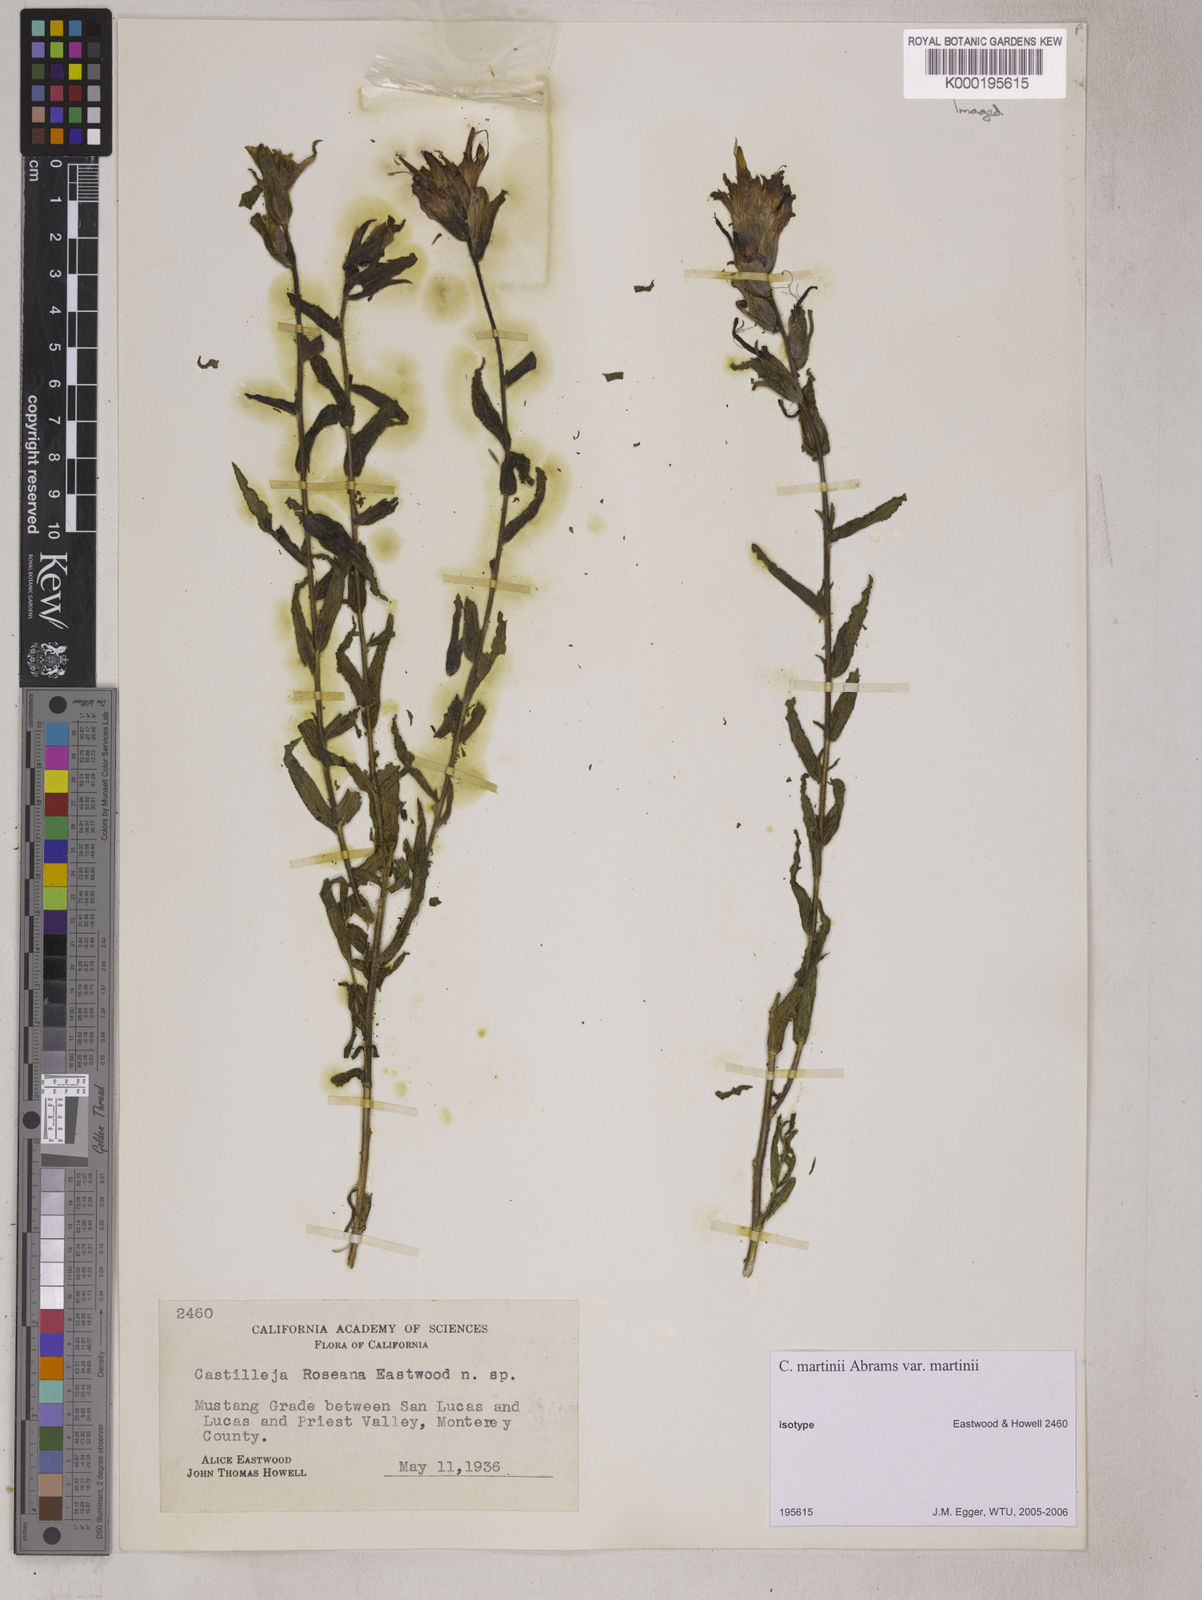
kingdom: Plantae
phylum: Tracheophyta
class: Magnoliopsida
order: Lamiales
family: Orobanchaceae
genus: Castilleja
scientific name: Castilleja martini
